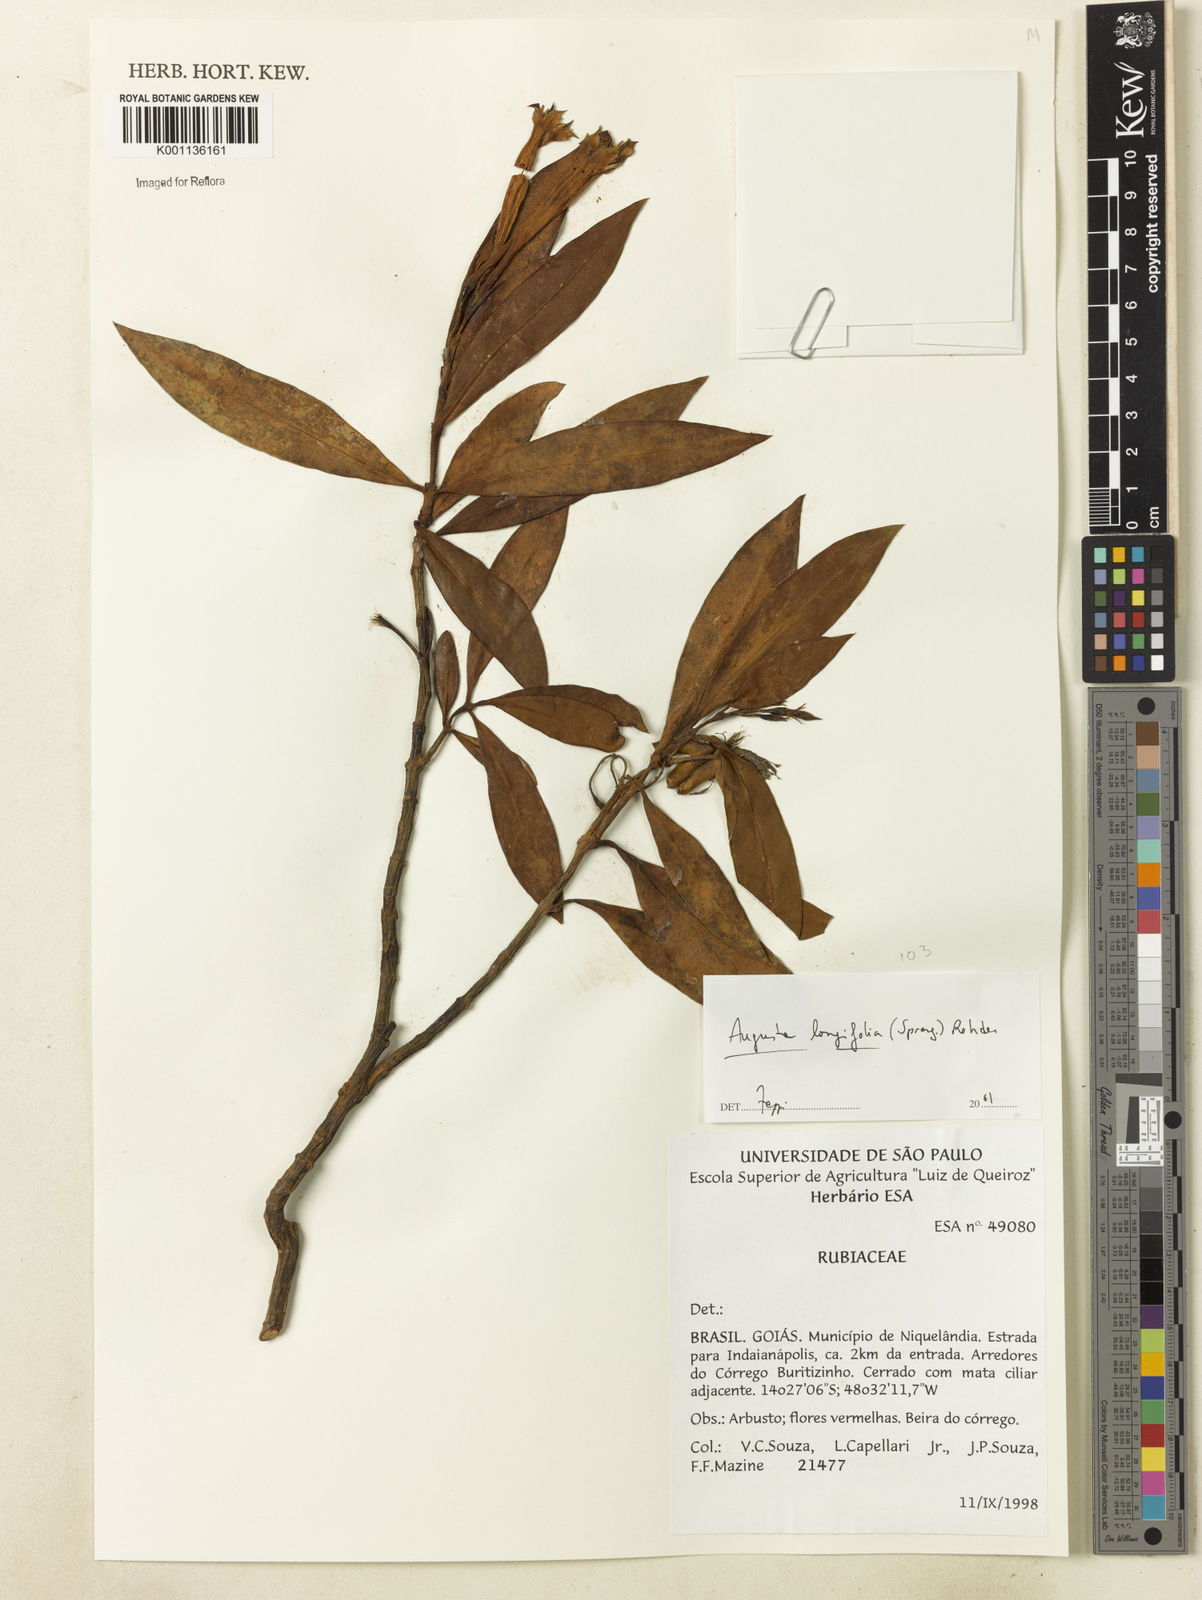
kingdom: Plantae
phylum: Tracheophyta
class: Magnoliopsida
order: Gentianales
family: Rubiaceae
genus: Augusta
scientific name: Augusta longifolia
